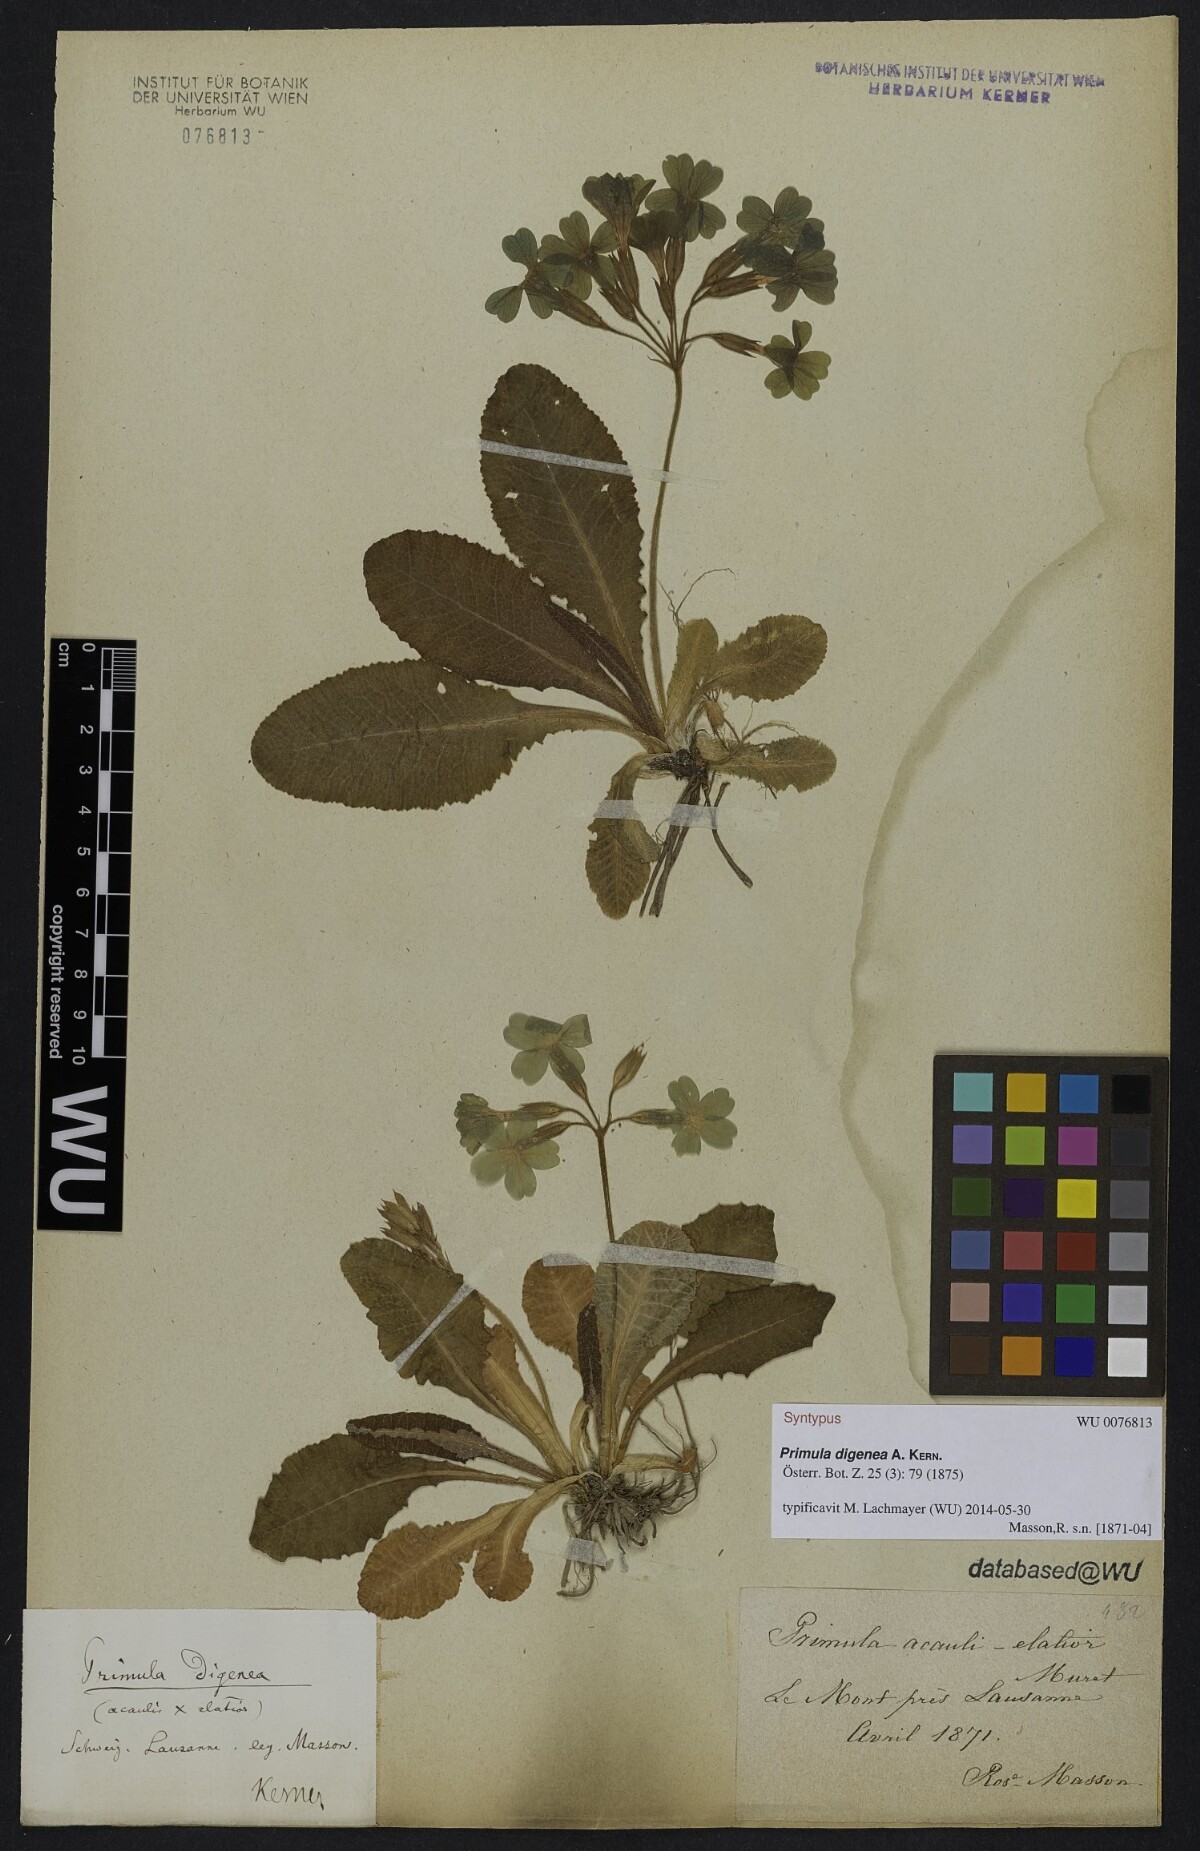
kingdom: Plantae
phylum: Tracheophyta
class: Magnoliopsida
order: Ericales
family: Primulaceae
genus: Primula
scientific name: Primula digenea
